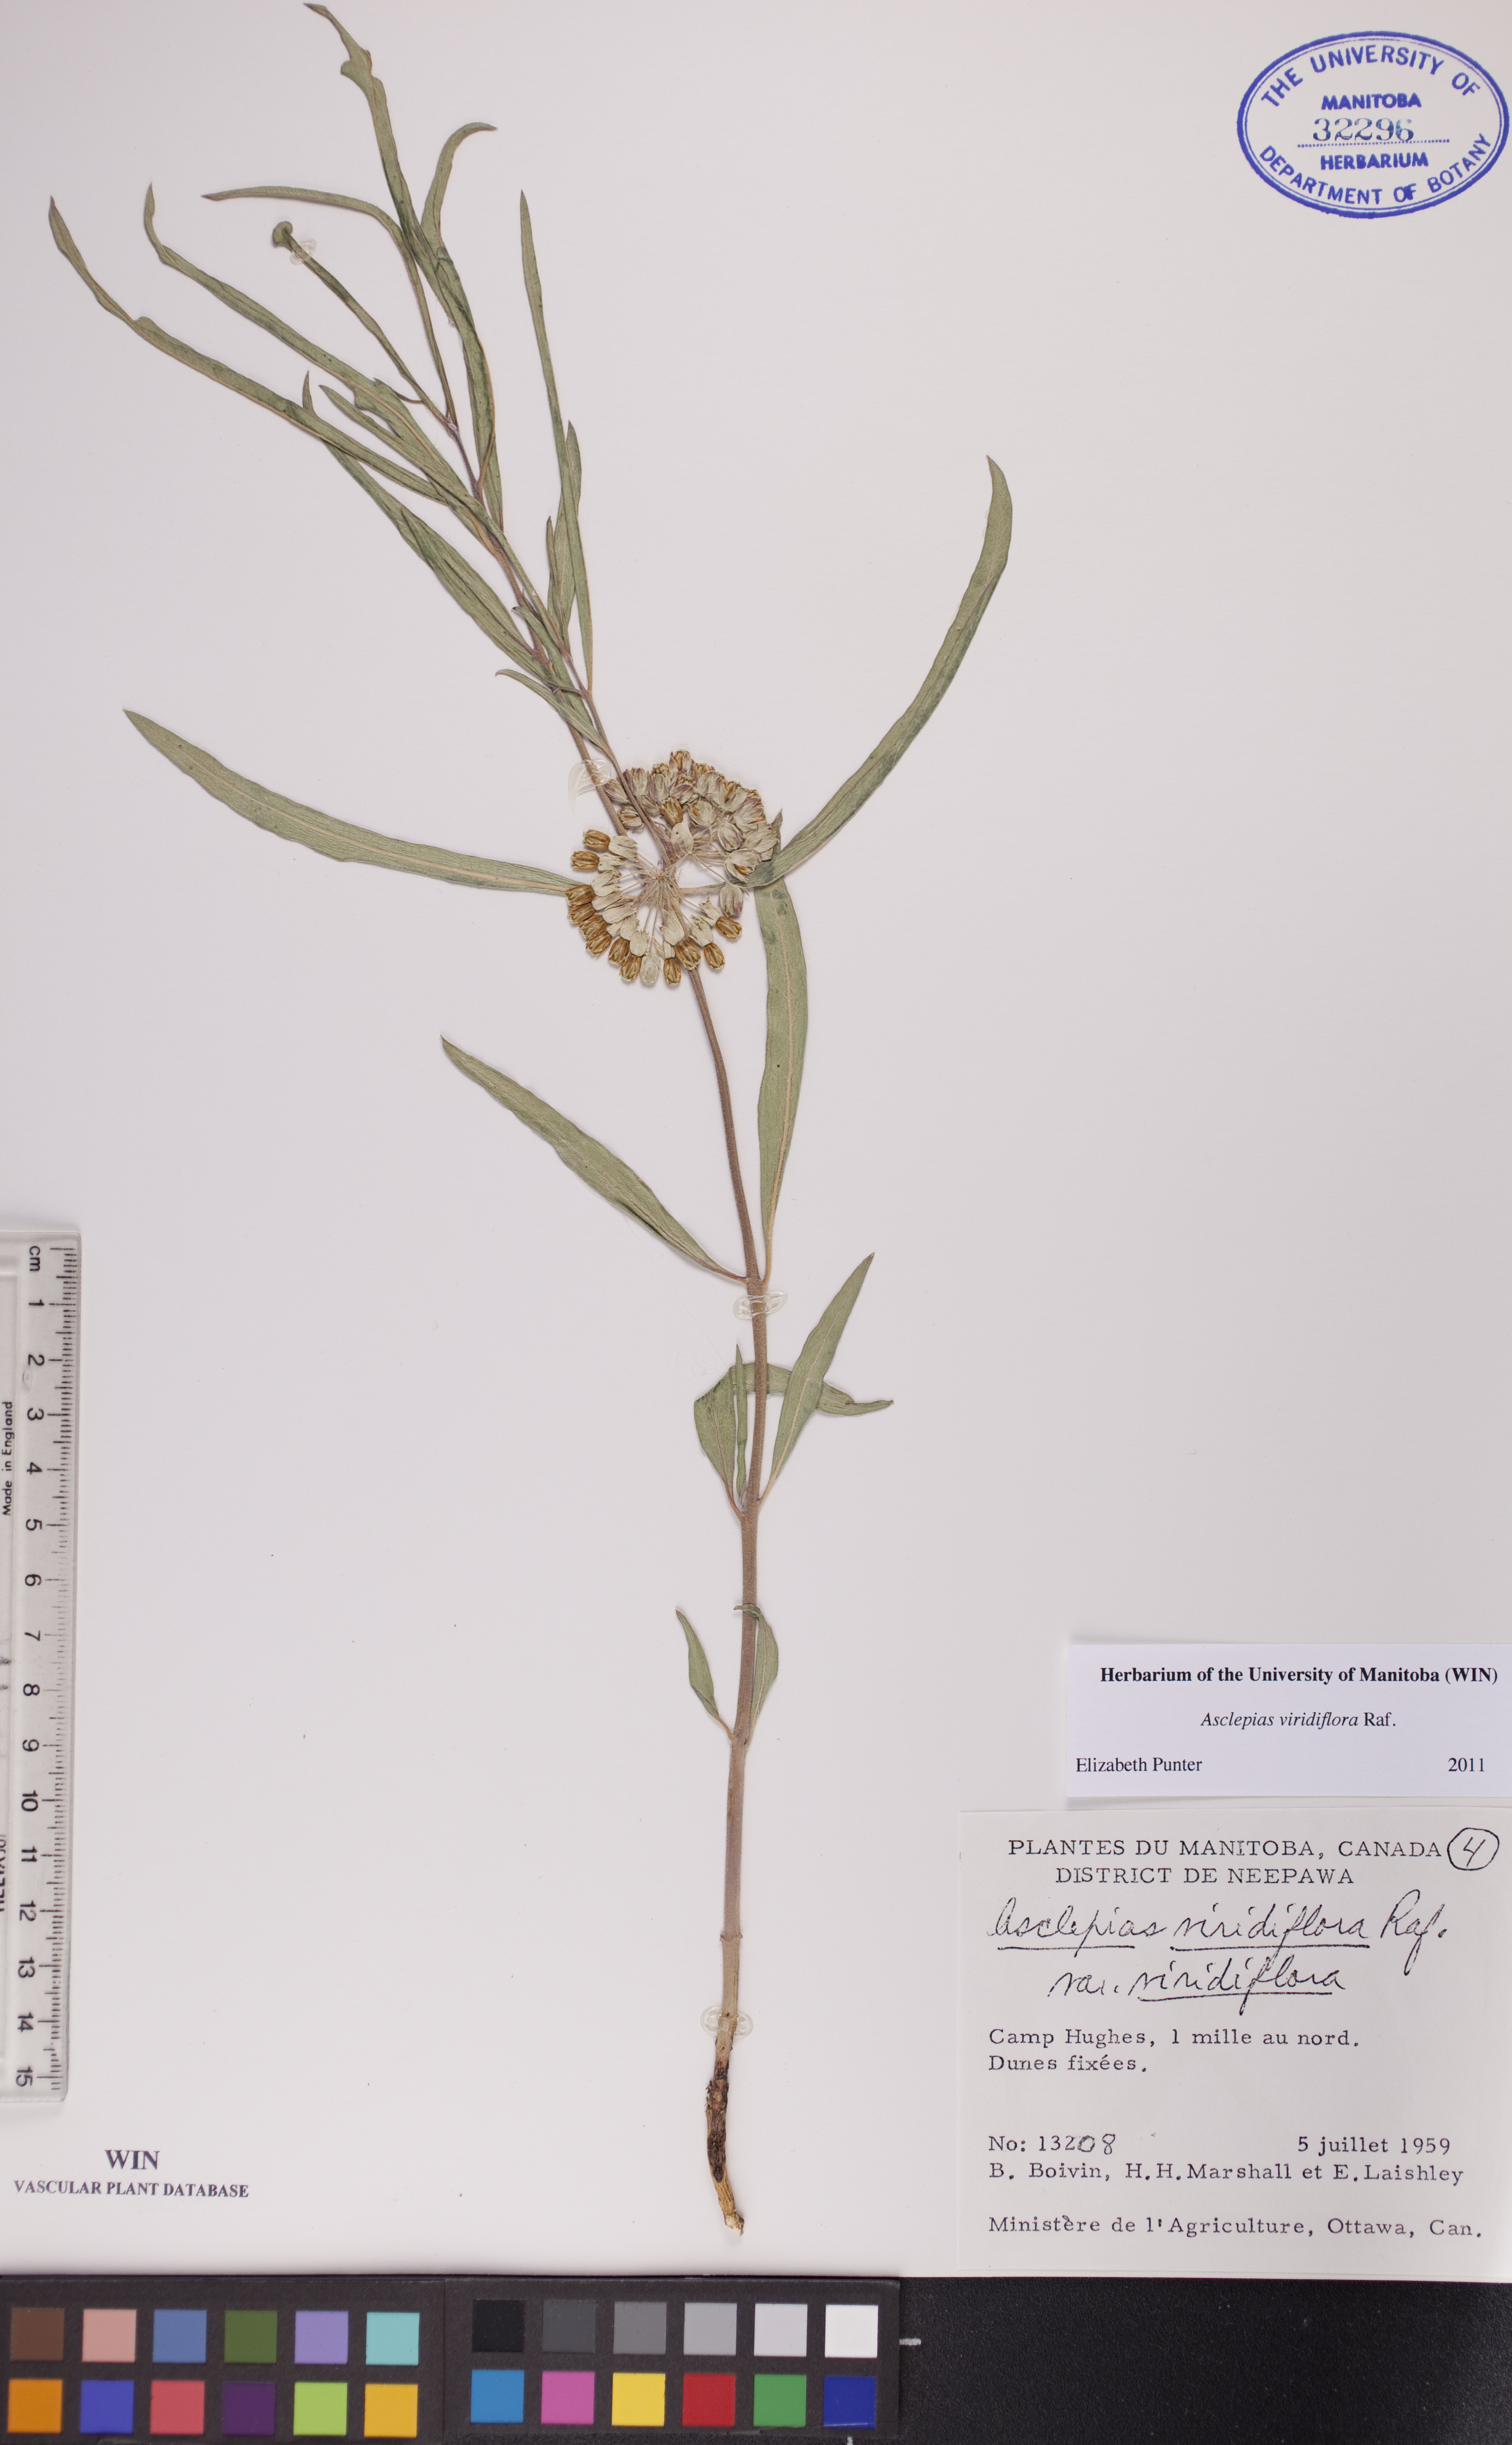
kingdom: Plantae
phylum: Tracheophyta
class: Magnoliopsida
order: Gentianales
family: Apocynaceae
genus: Asclepias
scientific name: Asclepias viridiflora
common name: Green comet milkweed
